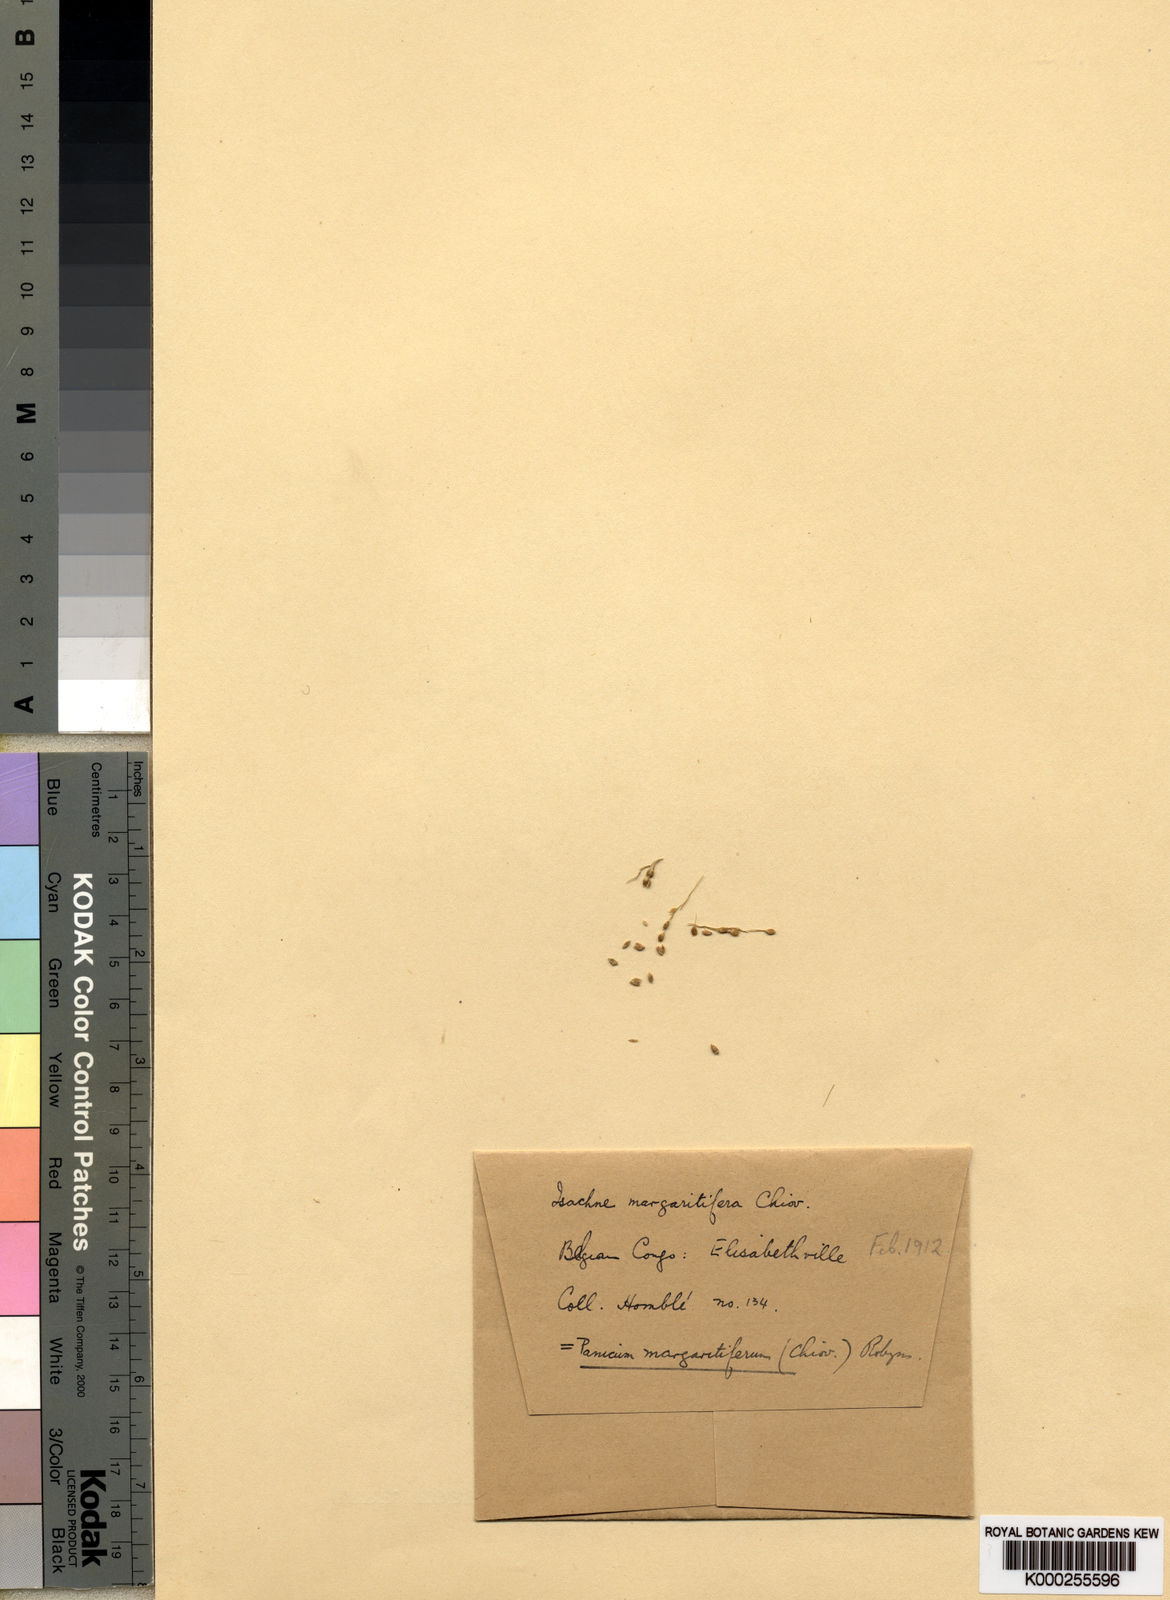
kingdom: Plantae
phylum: Tracheophyta
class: Liliopsida
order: Poales
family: Poaceae
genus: Panicum
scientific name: Panicum
